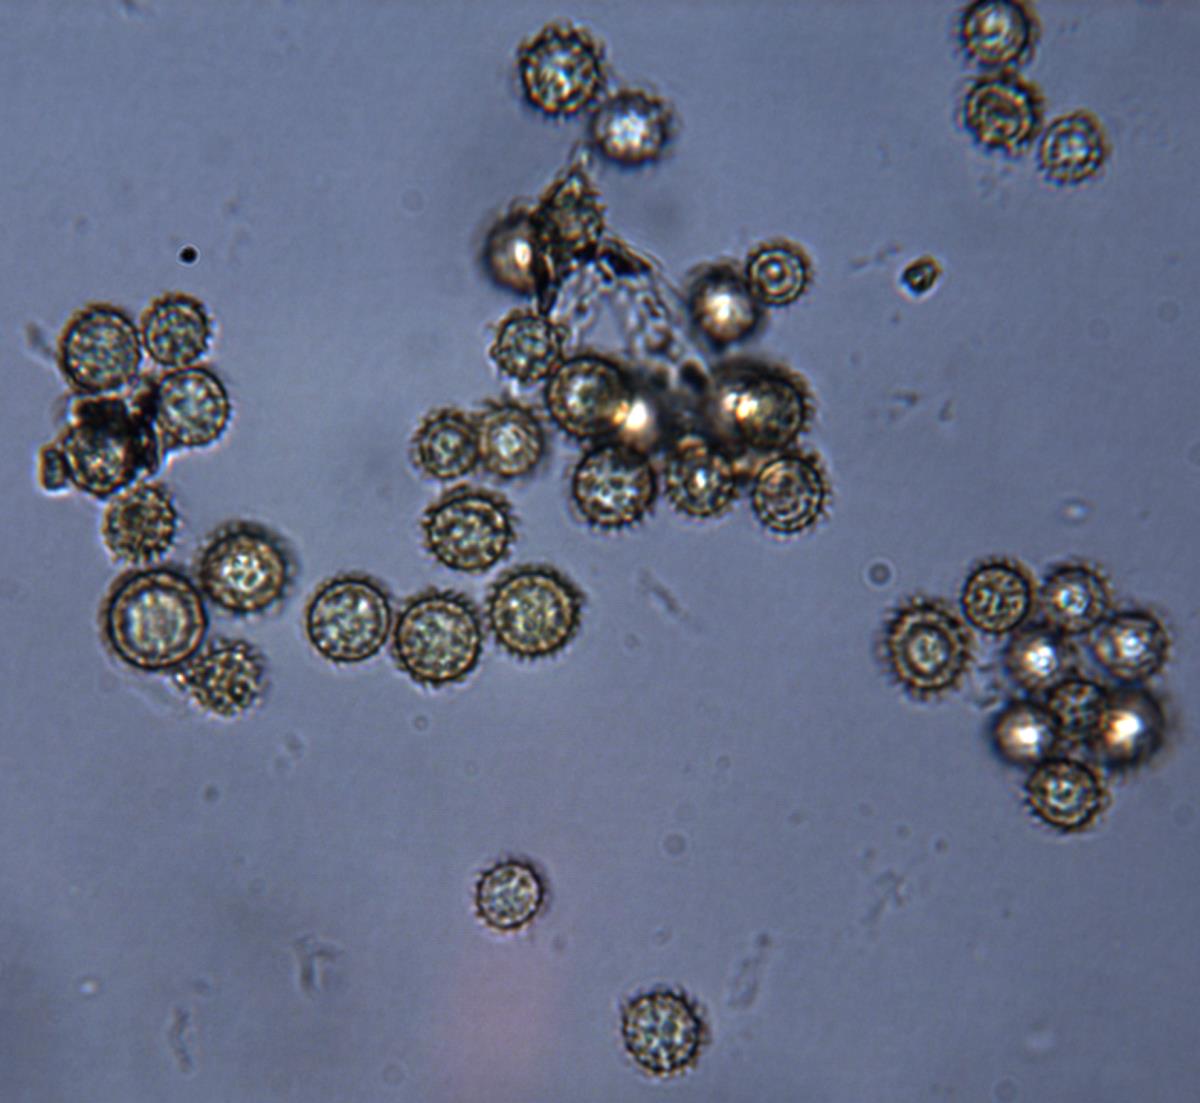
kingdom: Fungi
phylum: Basidiomycota
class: Agaricomycetes
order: Boletales
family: Sclerodermataceae
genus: Pisolithus
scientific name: Pisolithus tinctorius
